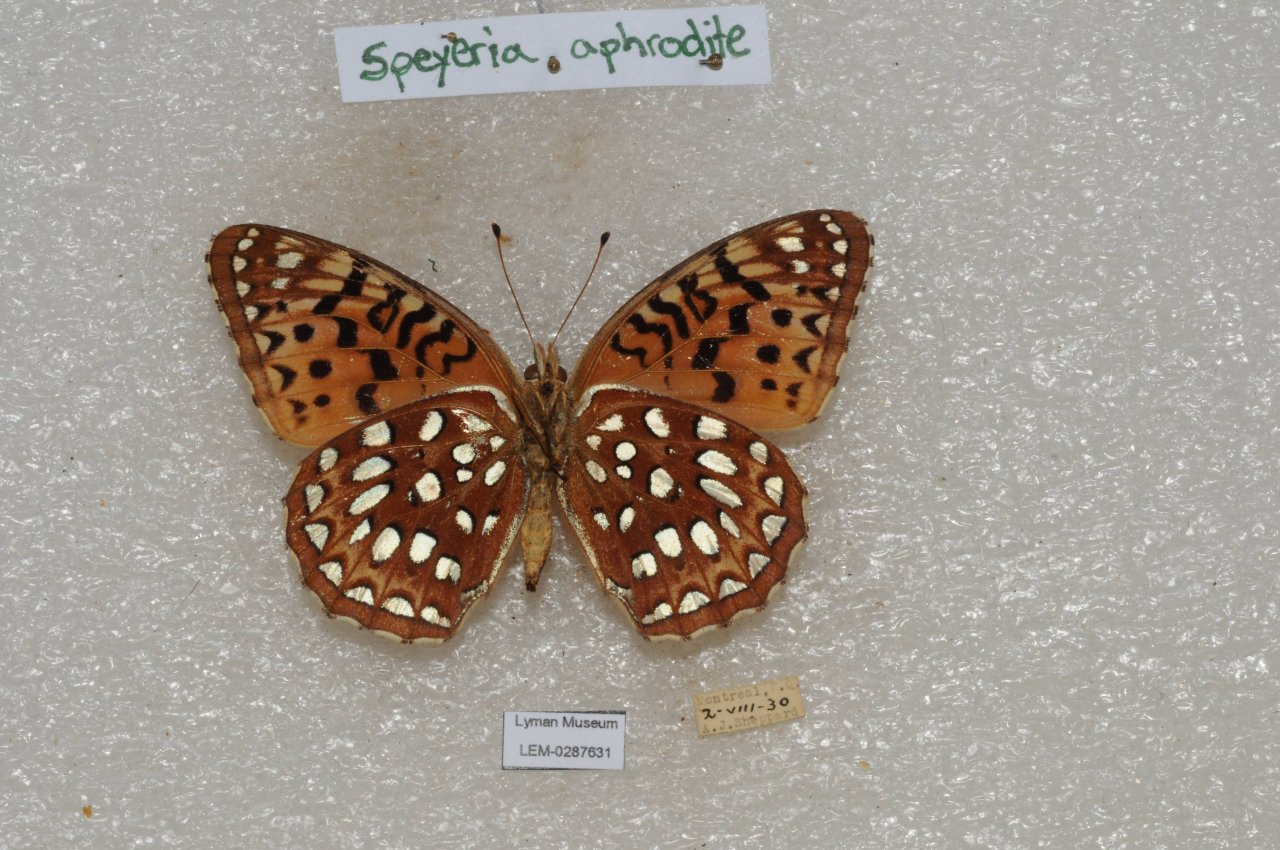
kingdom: Animalia
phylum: Arthropoda
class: Insecta
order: Lepidoptera
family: Nymphalidae
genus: Speyeria
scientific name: Speyeria aphrodite
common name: Aphrodite Fritillary
